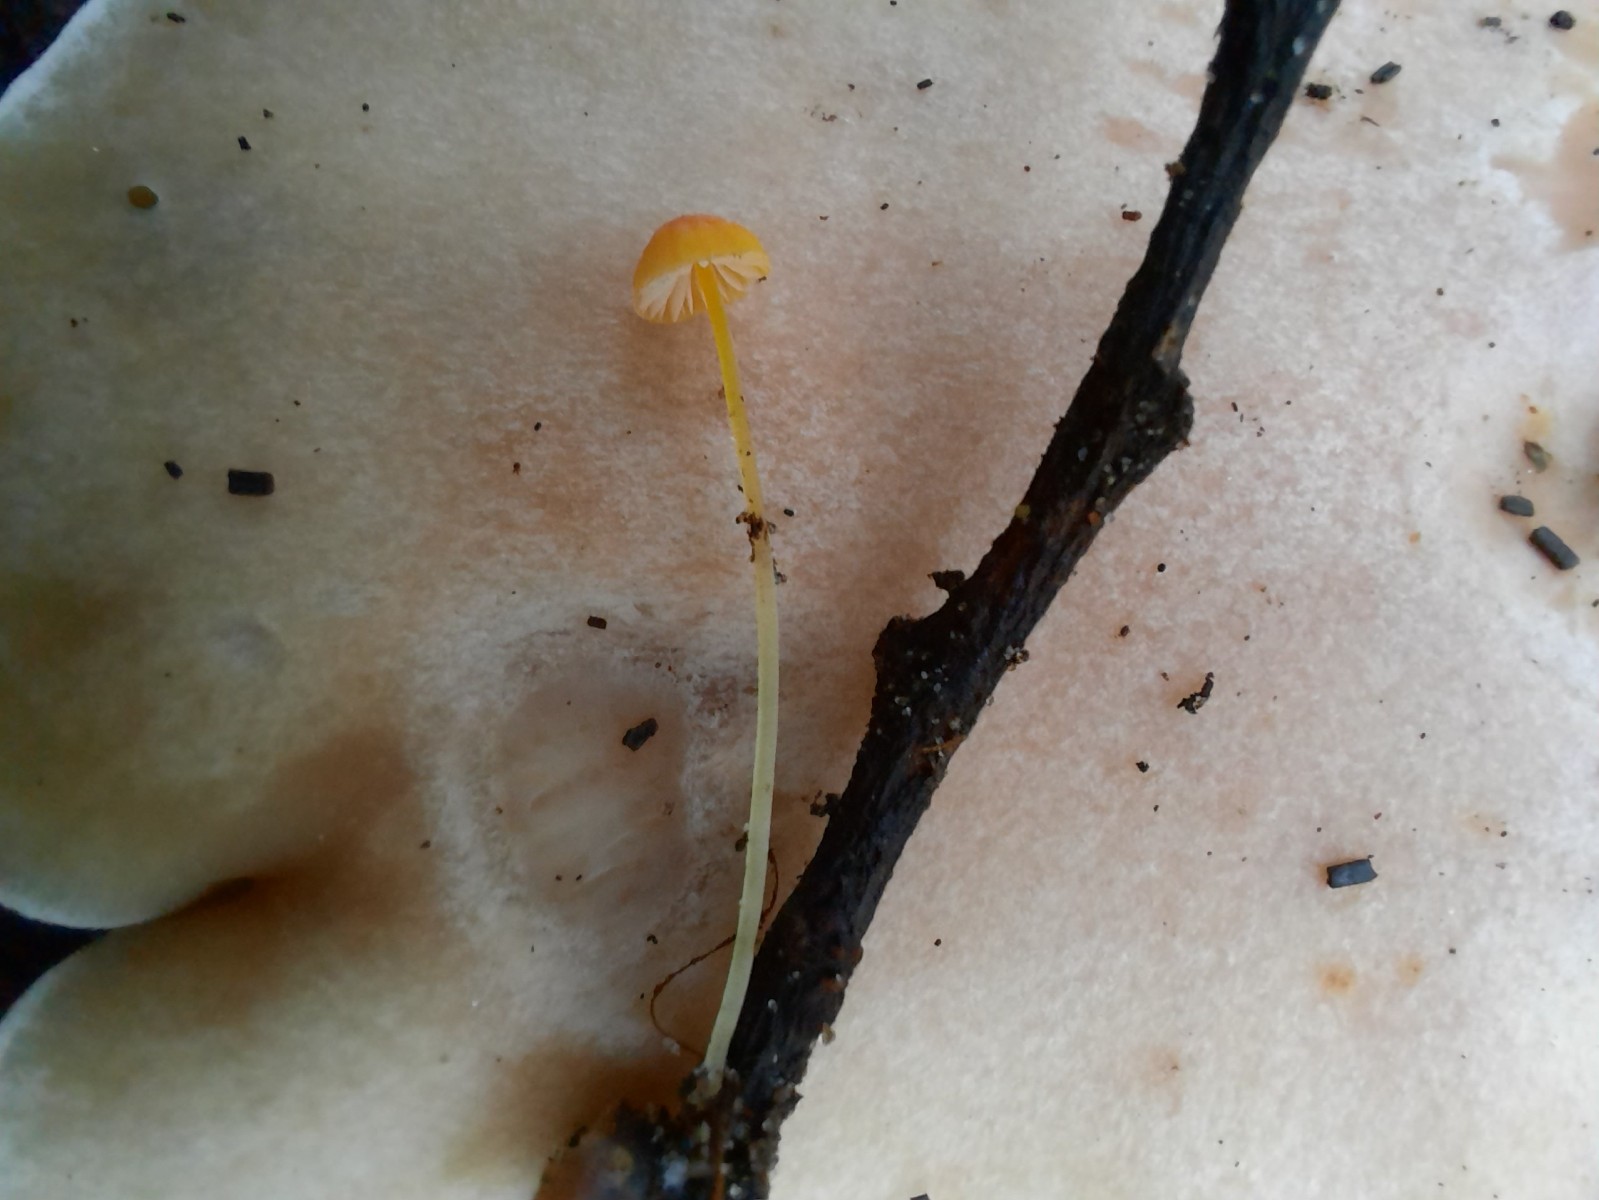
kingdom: Fungi
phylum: Basidiomycota
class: Agaricomycetes
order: Agaricales
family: Mycenaceae
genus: Mycena
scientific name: Mycena acicula
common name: orange huesvamp
